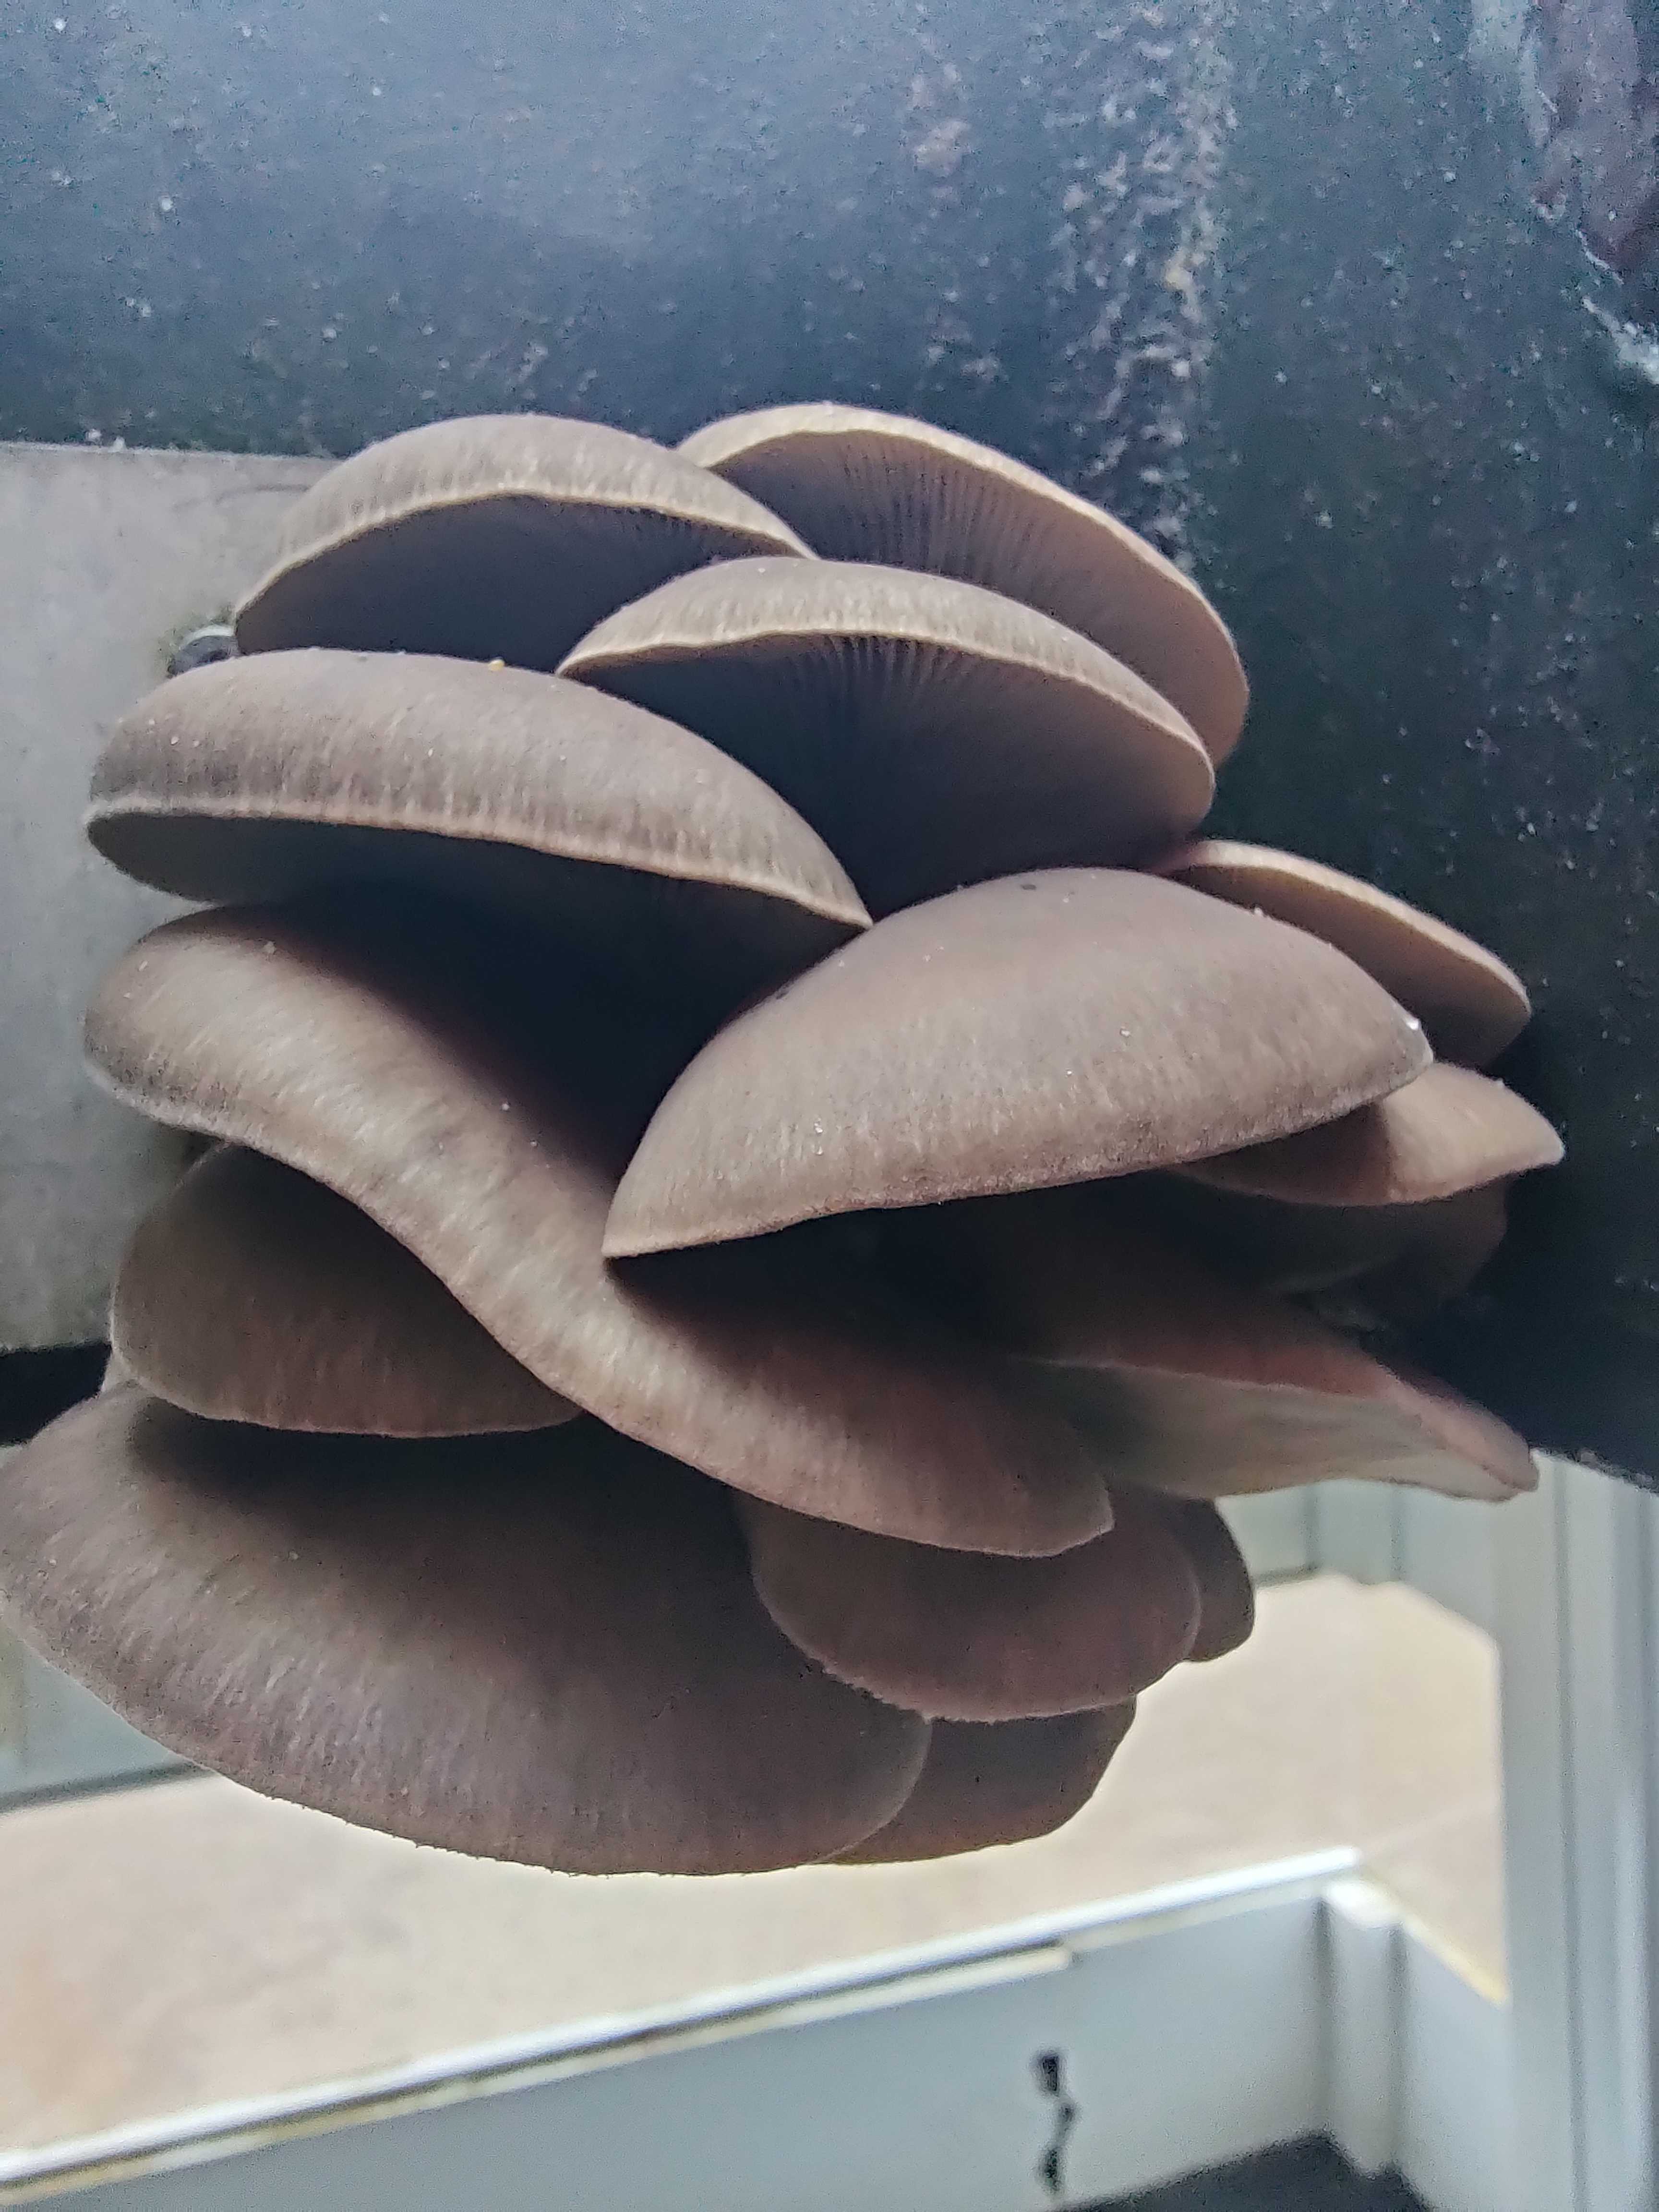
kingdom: Fungi
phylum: Basidiomycota
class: Agaricomycetes
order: Agaricales
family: Pleurotaceae
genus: Pleurotus
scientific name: Pleurotus ostreatus
